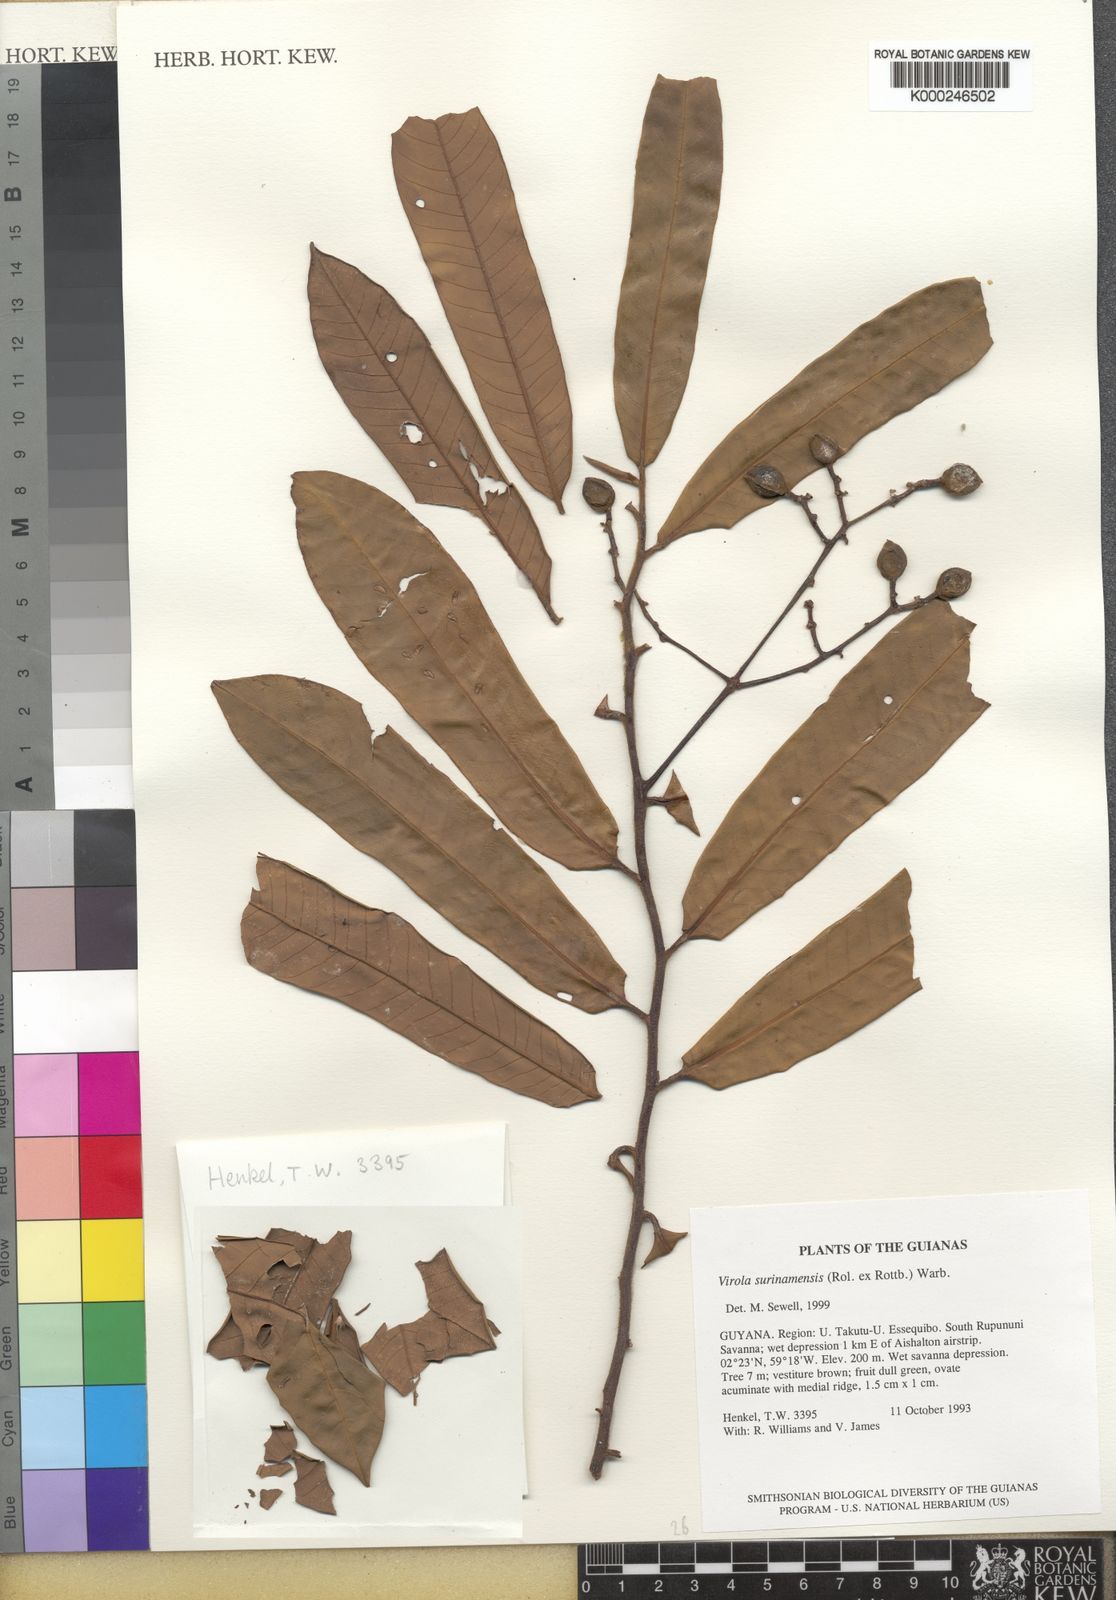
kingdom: Plantae
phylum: Tracheophyta
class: Magnoliopsida
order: Magnoliales
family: Myristicaceae
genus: Virola
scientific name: Virola surinamensis
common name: Baboonwood
